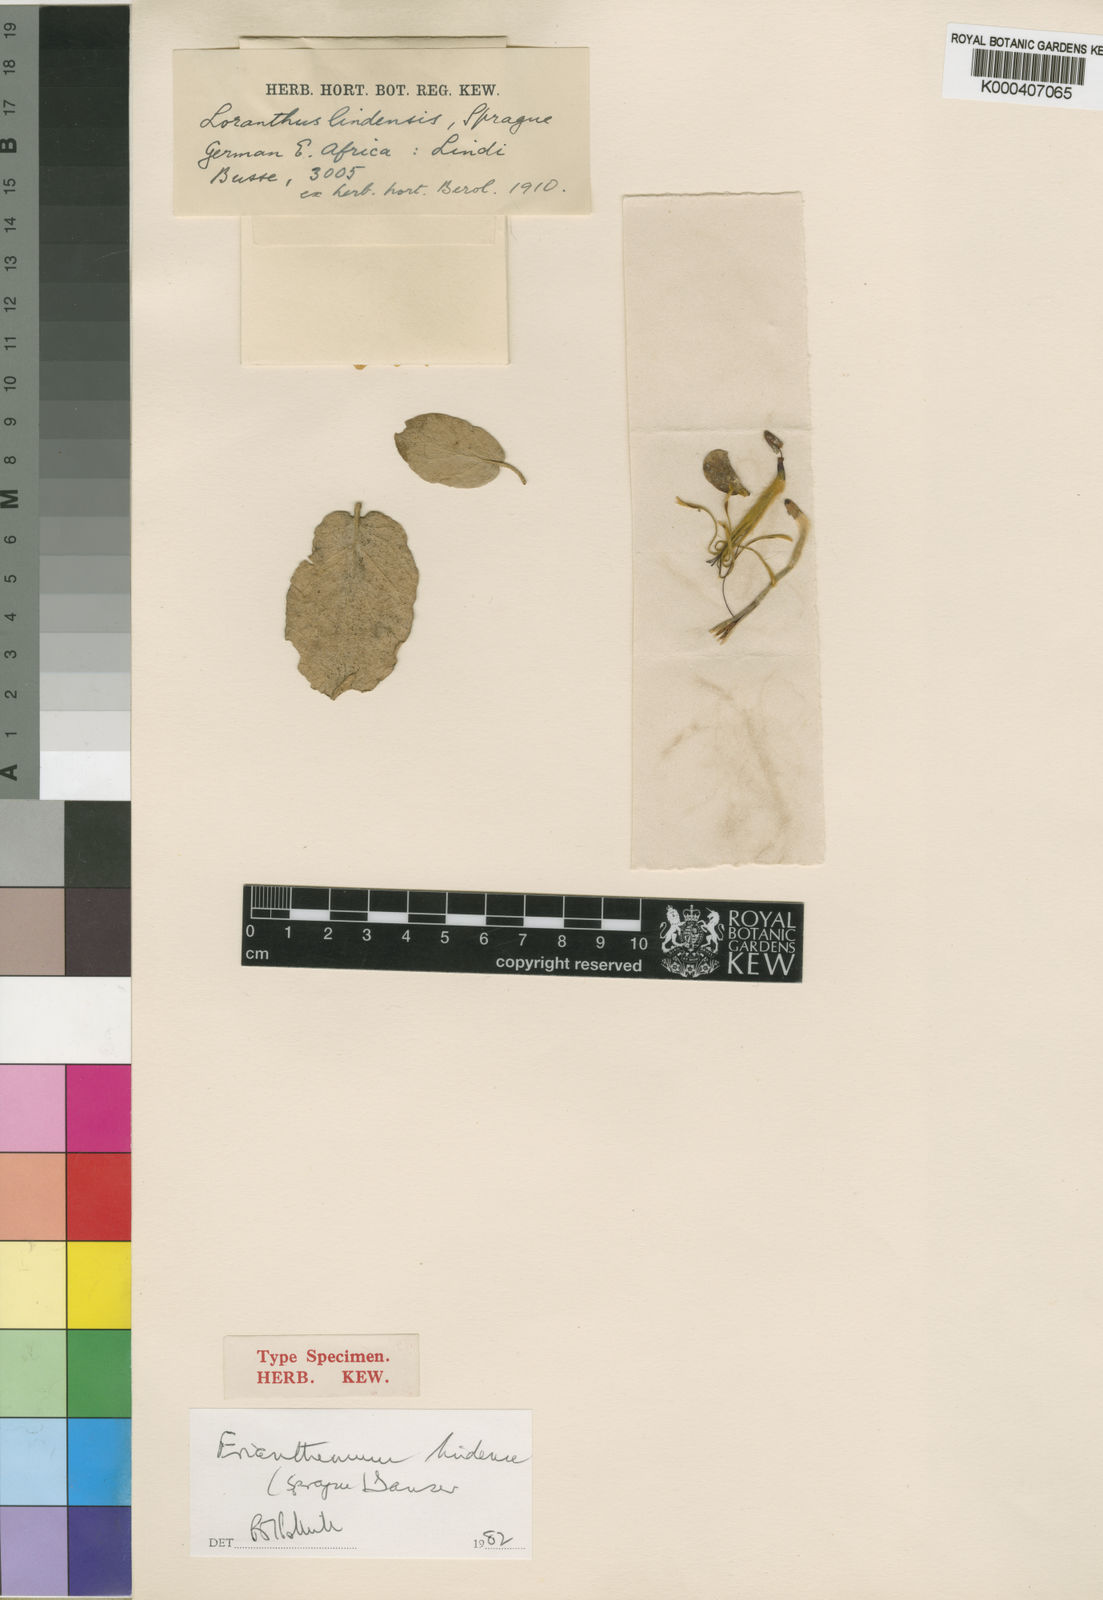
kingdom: Plantae
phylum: Tracheophyta
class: Magnoliopsida
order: Santalales
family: Loranthaceae
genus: Erianthemum
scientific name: Erianthemum lindense
